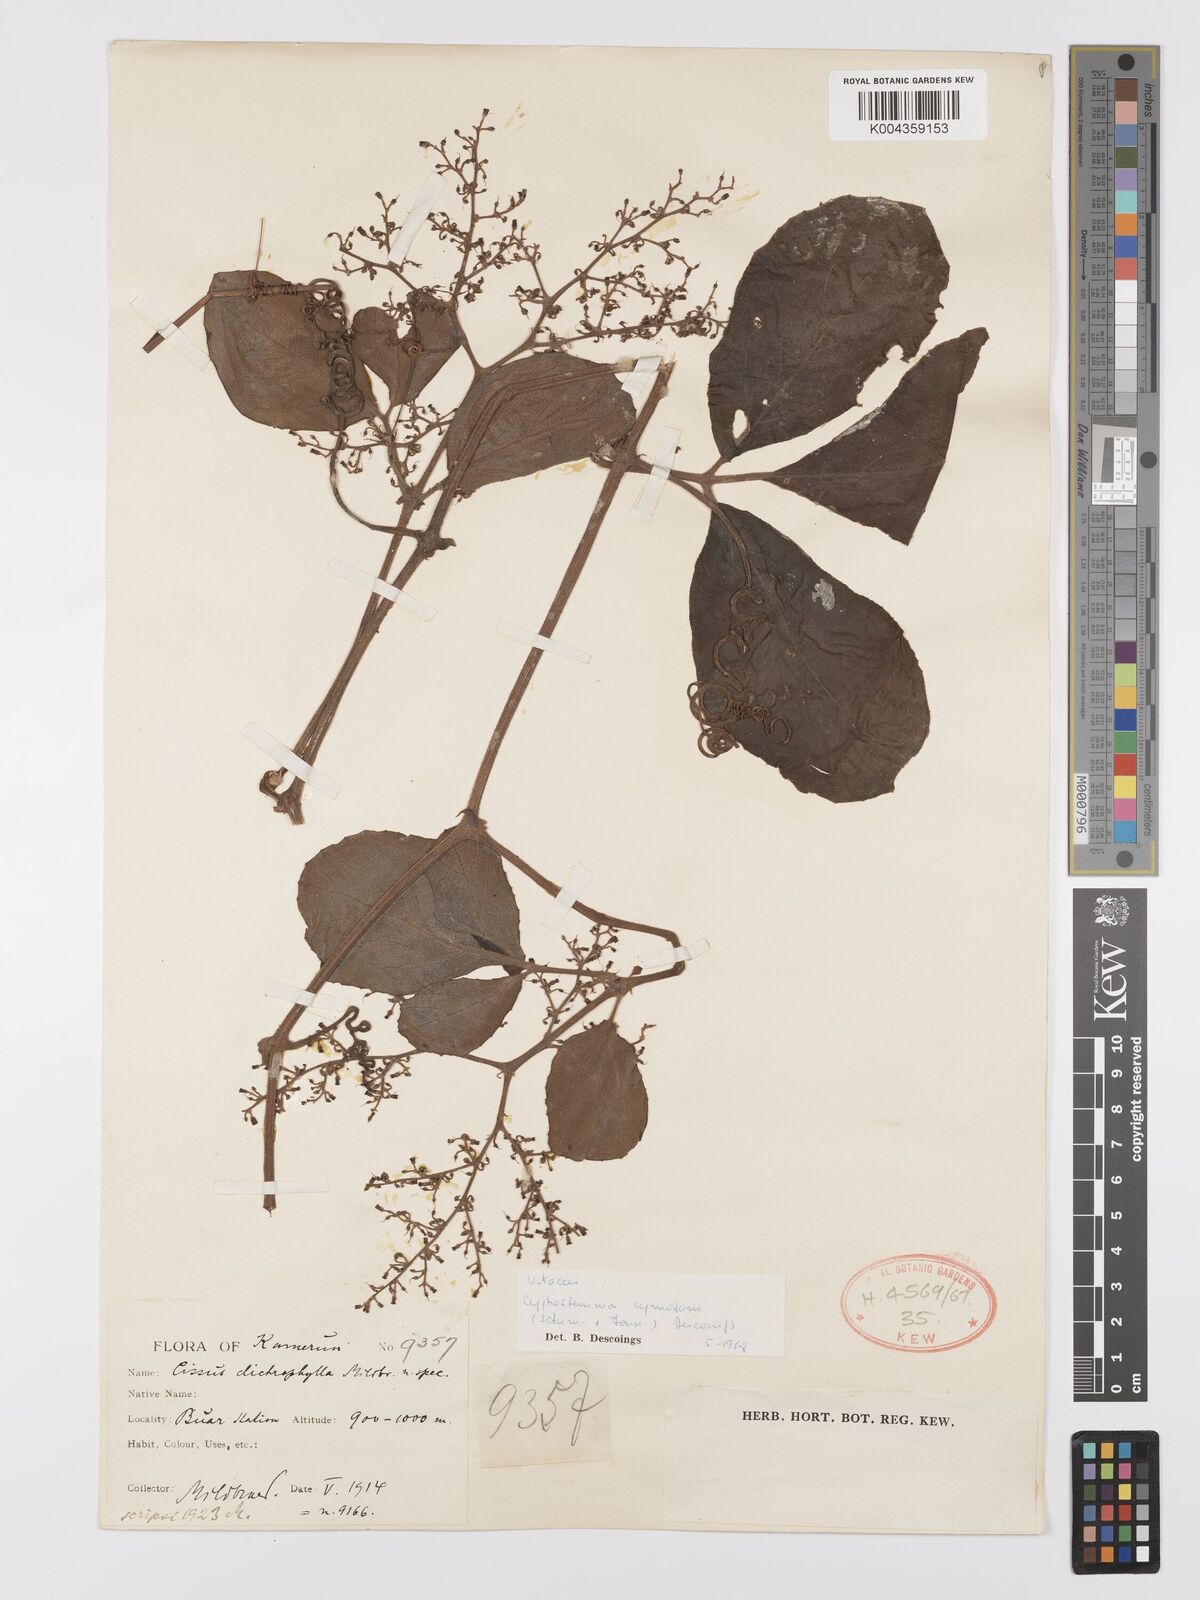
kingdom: Plantae
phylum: Tracheophyta
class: Magnoliopsida
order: Vitales
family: Vitaceae
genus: Cyphostemma
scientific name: Cyphostemma cymosum
